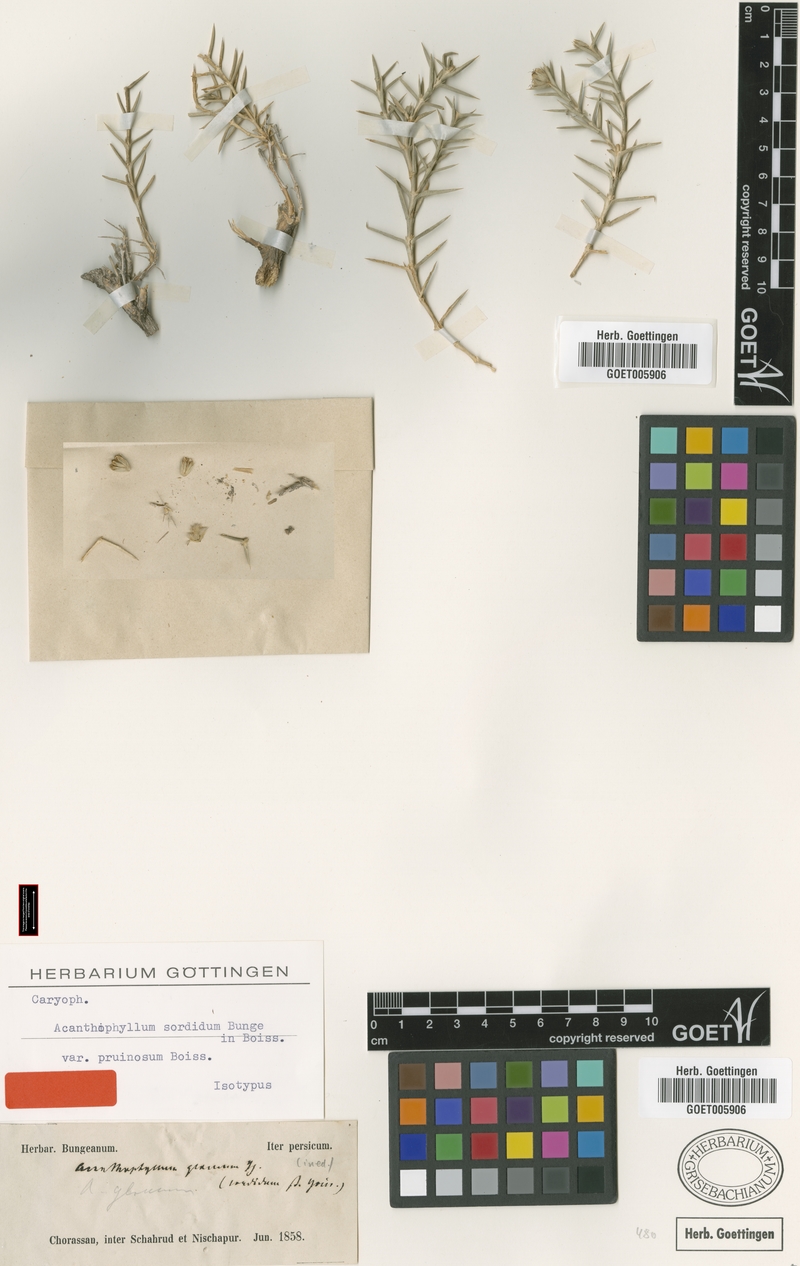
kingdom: Plantae
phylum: Tracheophyta
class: Magnoliopsida
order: Caryophyllales
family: Caryophyllaceae
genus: Acanthophyllum
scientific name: Acanthophyllum sordidum
